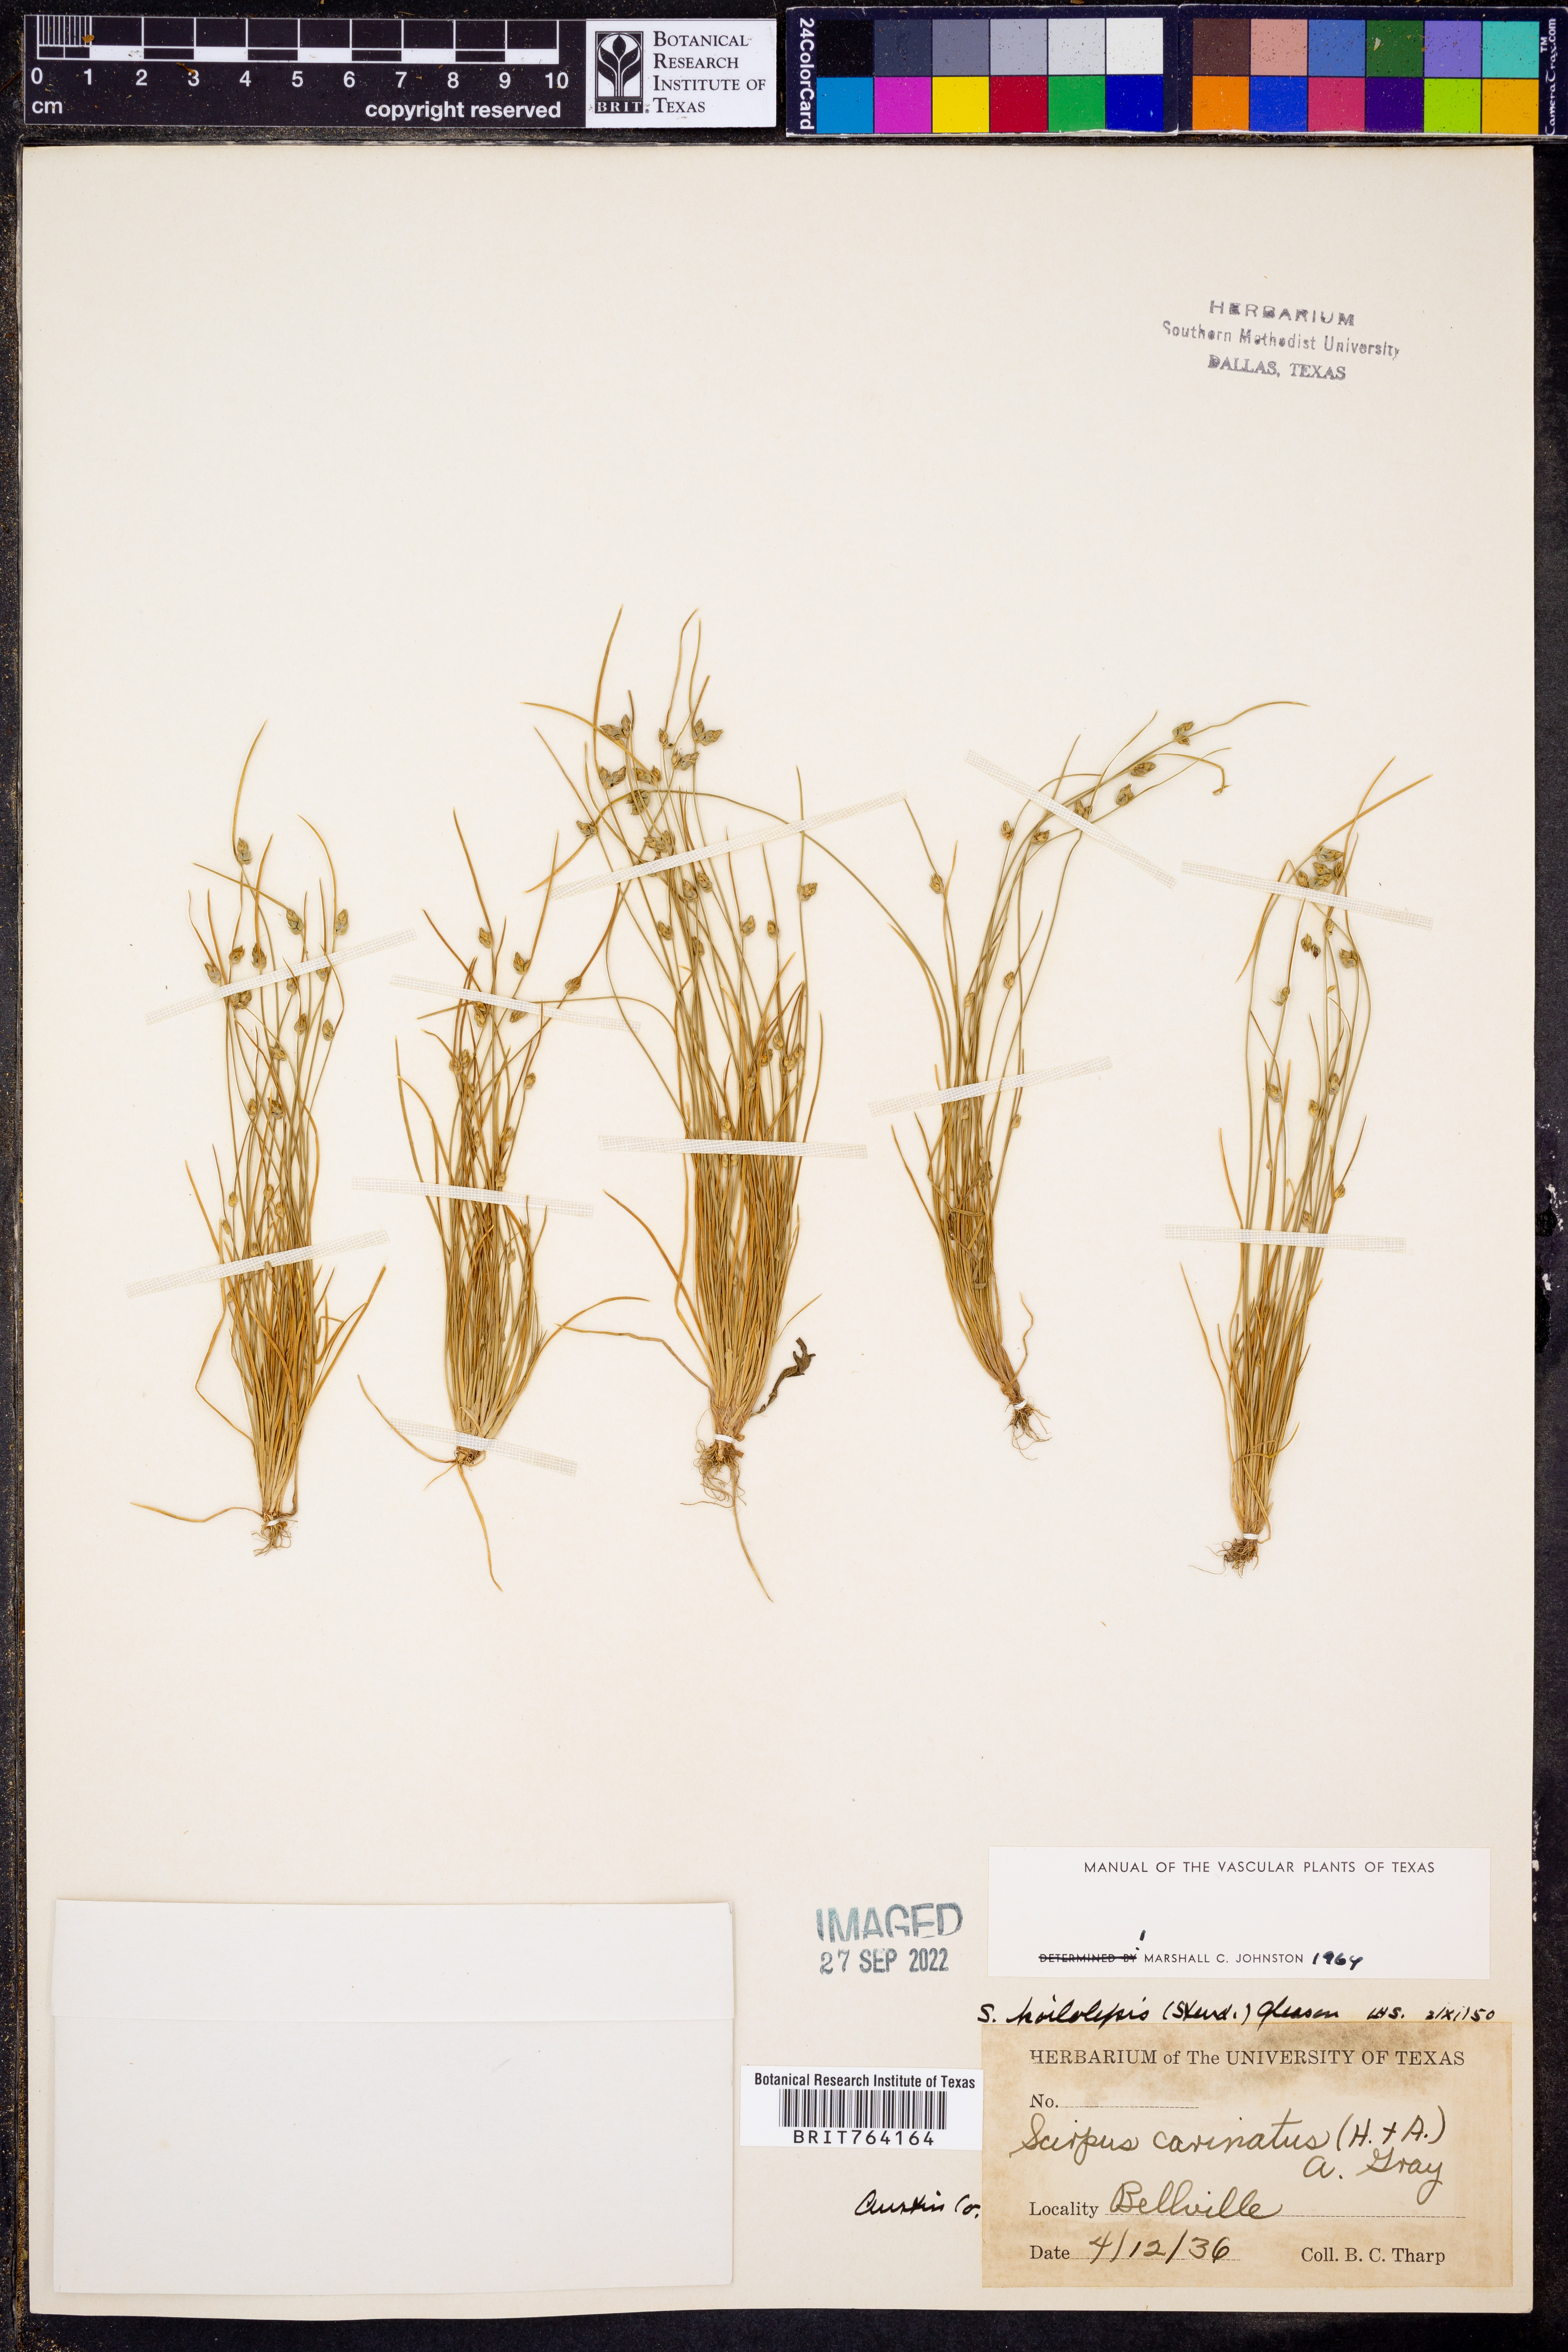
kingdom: Plantae
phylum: Tracheophyta
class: Liliopsida
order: Poales
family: Cyperaceae
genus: Isolepis
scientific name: Isolepis carinata
